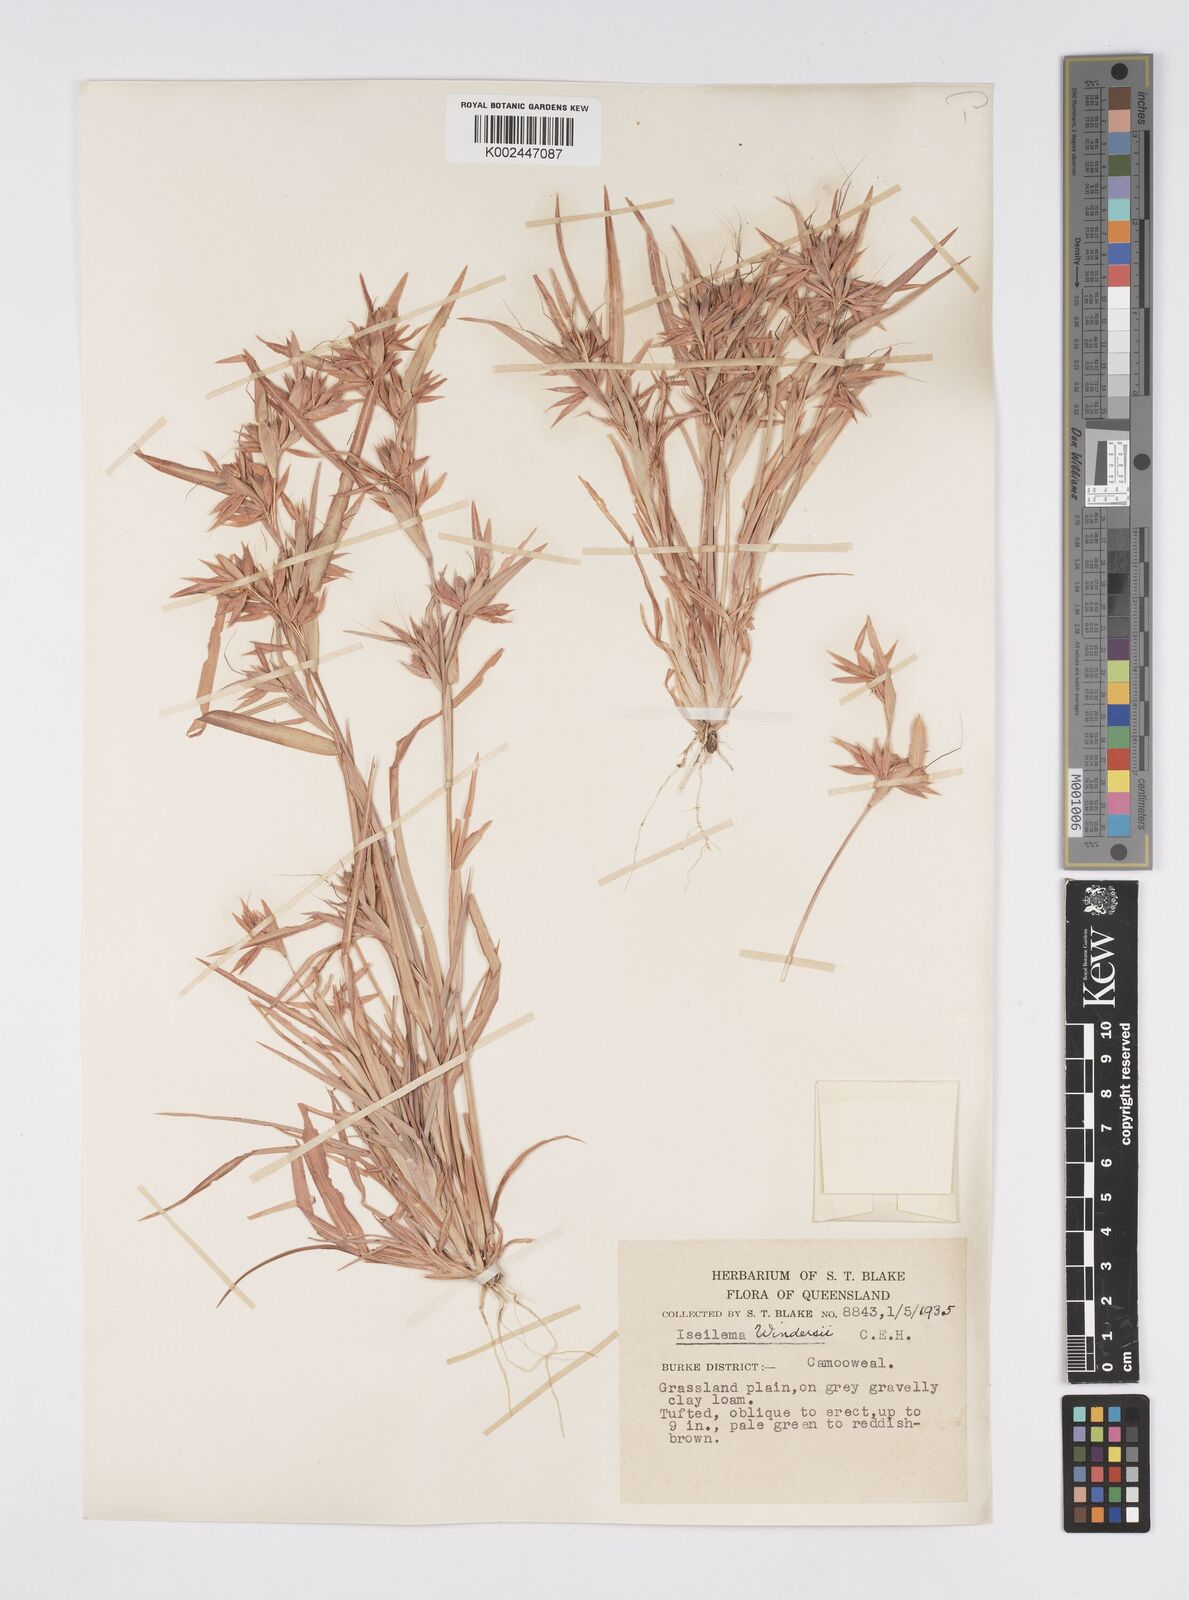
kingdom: Plantae
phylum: Tracheophyta
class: Liliopsida
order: Poales
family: Poaceae
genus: Iseilema
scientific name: Iseilema windersii
